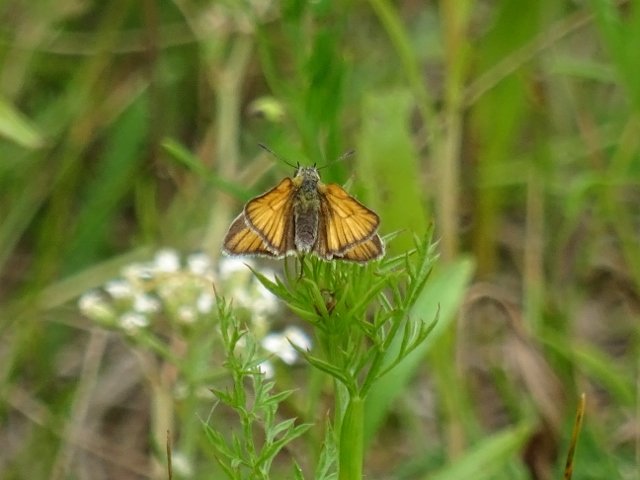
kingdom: Animalia
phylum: Arthropoda
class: Insecta
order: Lepidoptera
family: Hesperiidae
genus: Thymelicus
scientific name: Thymelicus lineola
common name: European Skipper
